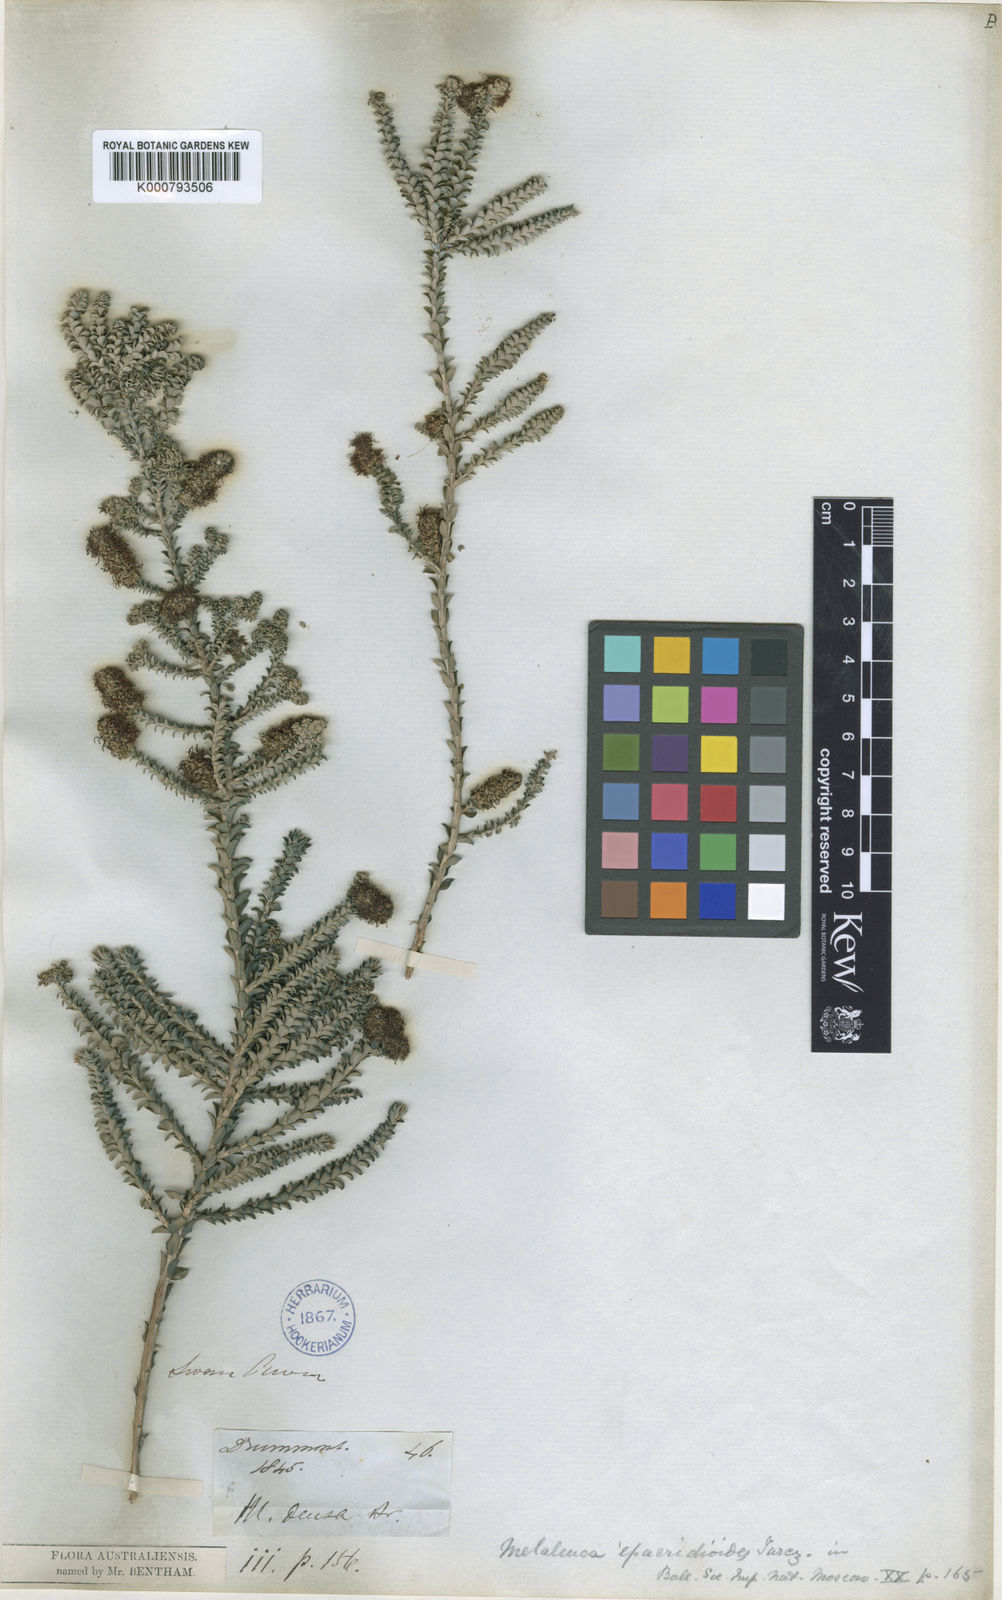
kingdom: Plantae
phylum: Tracheophyta
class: Magnoliopsida
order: Myrtales
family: Myrtaceae
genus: Melaleuca
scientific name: Melaleuca densa
